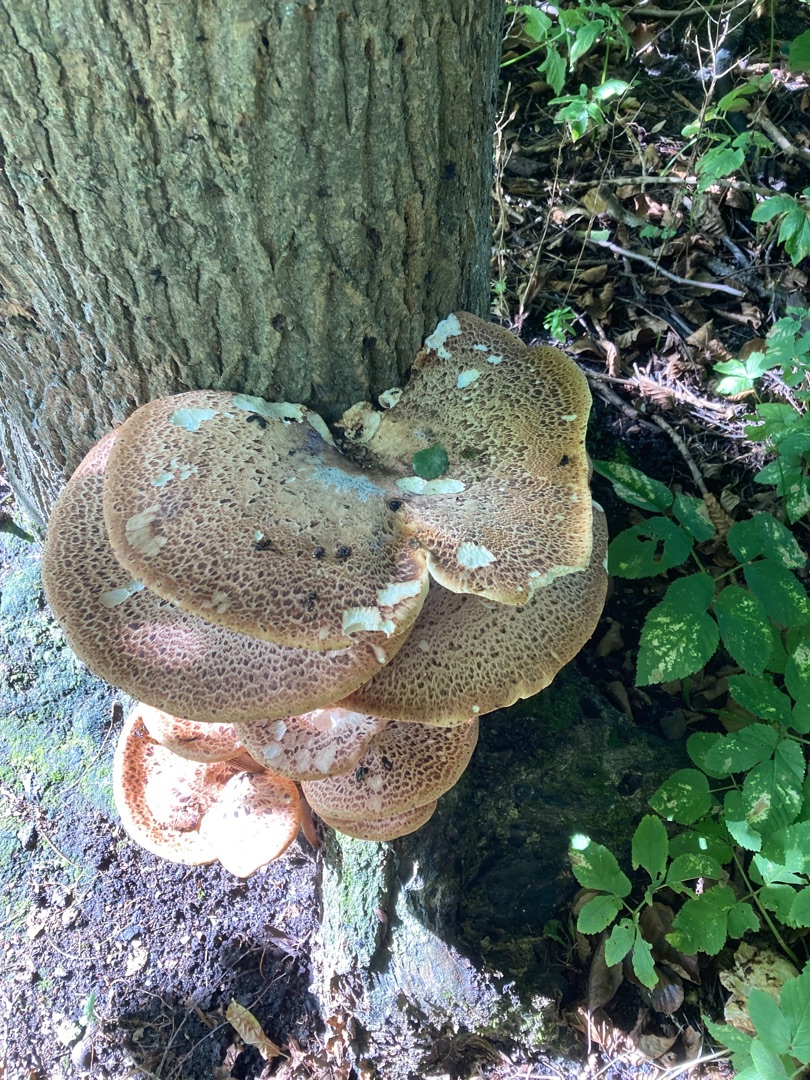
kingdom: Fungi
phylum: Basidiomycota
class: Agaricomycetes
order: Polyporales
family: Polyporaceae
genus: Cerioporus
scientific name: Cerioporus squamosus
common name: Skællet stilkporesvamp
